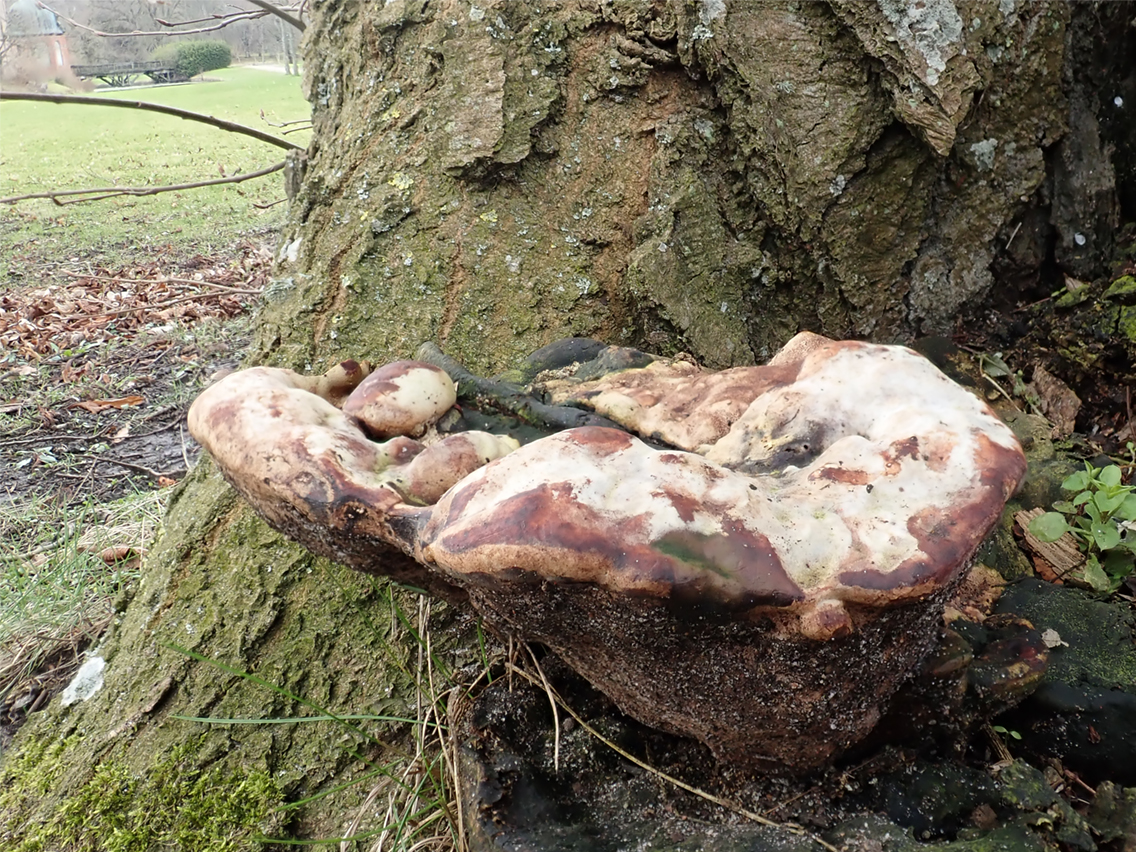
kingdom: Fungi
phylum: Basidiomycota
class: Agaricomycetes
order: Polyporales
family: Polyporaceae
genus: Vanderbylia
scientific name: Vanderbylia fraxinea
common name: stor kanelporesvamp
